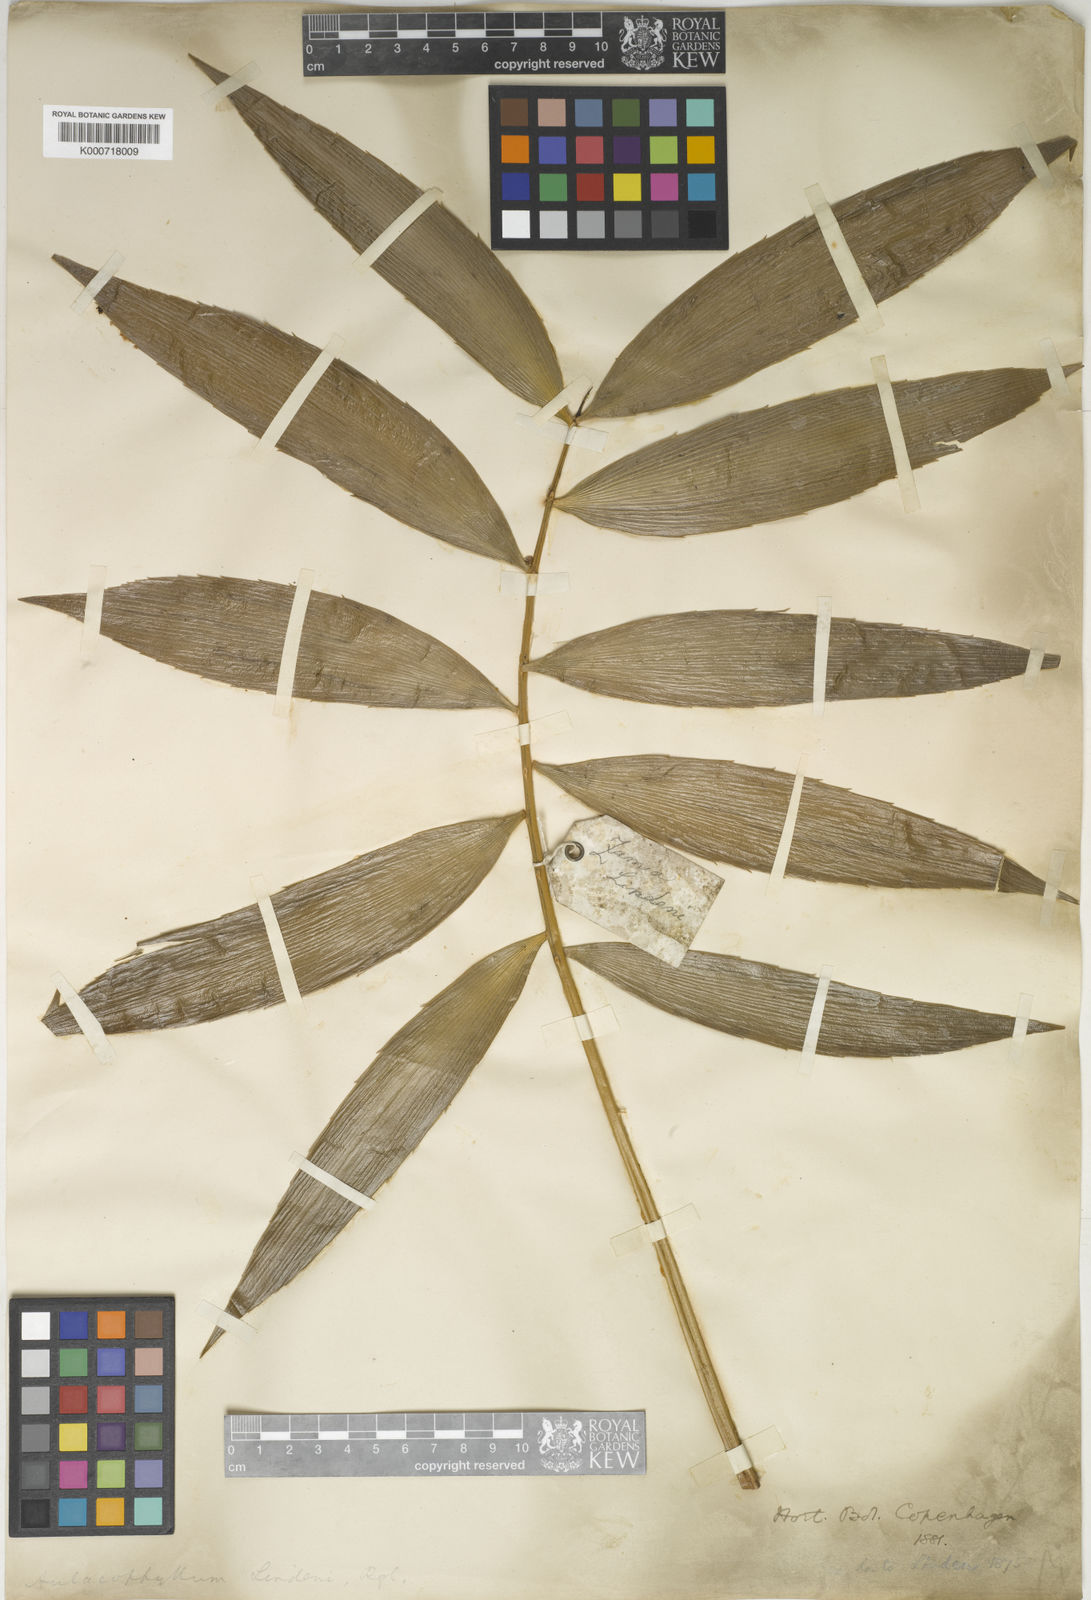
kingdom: Plantae
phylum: Tracheophyta
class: Cycadopsida
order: Cycadales
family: Zamiaceae
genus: Zamia
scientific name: Zamia
